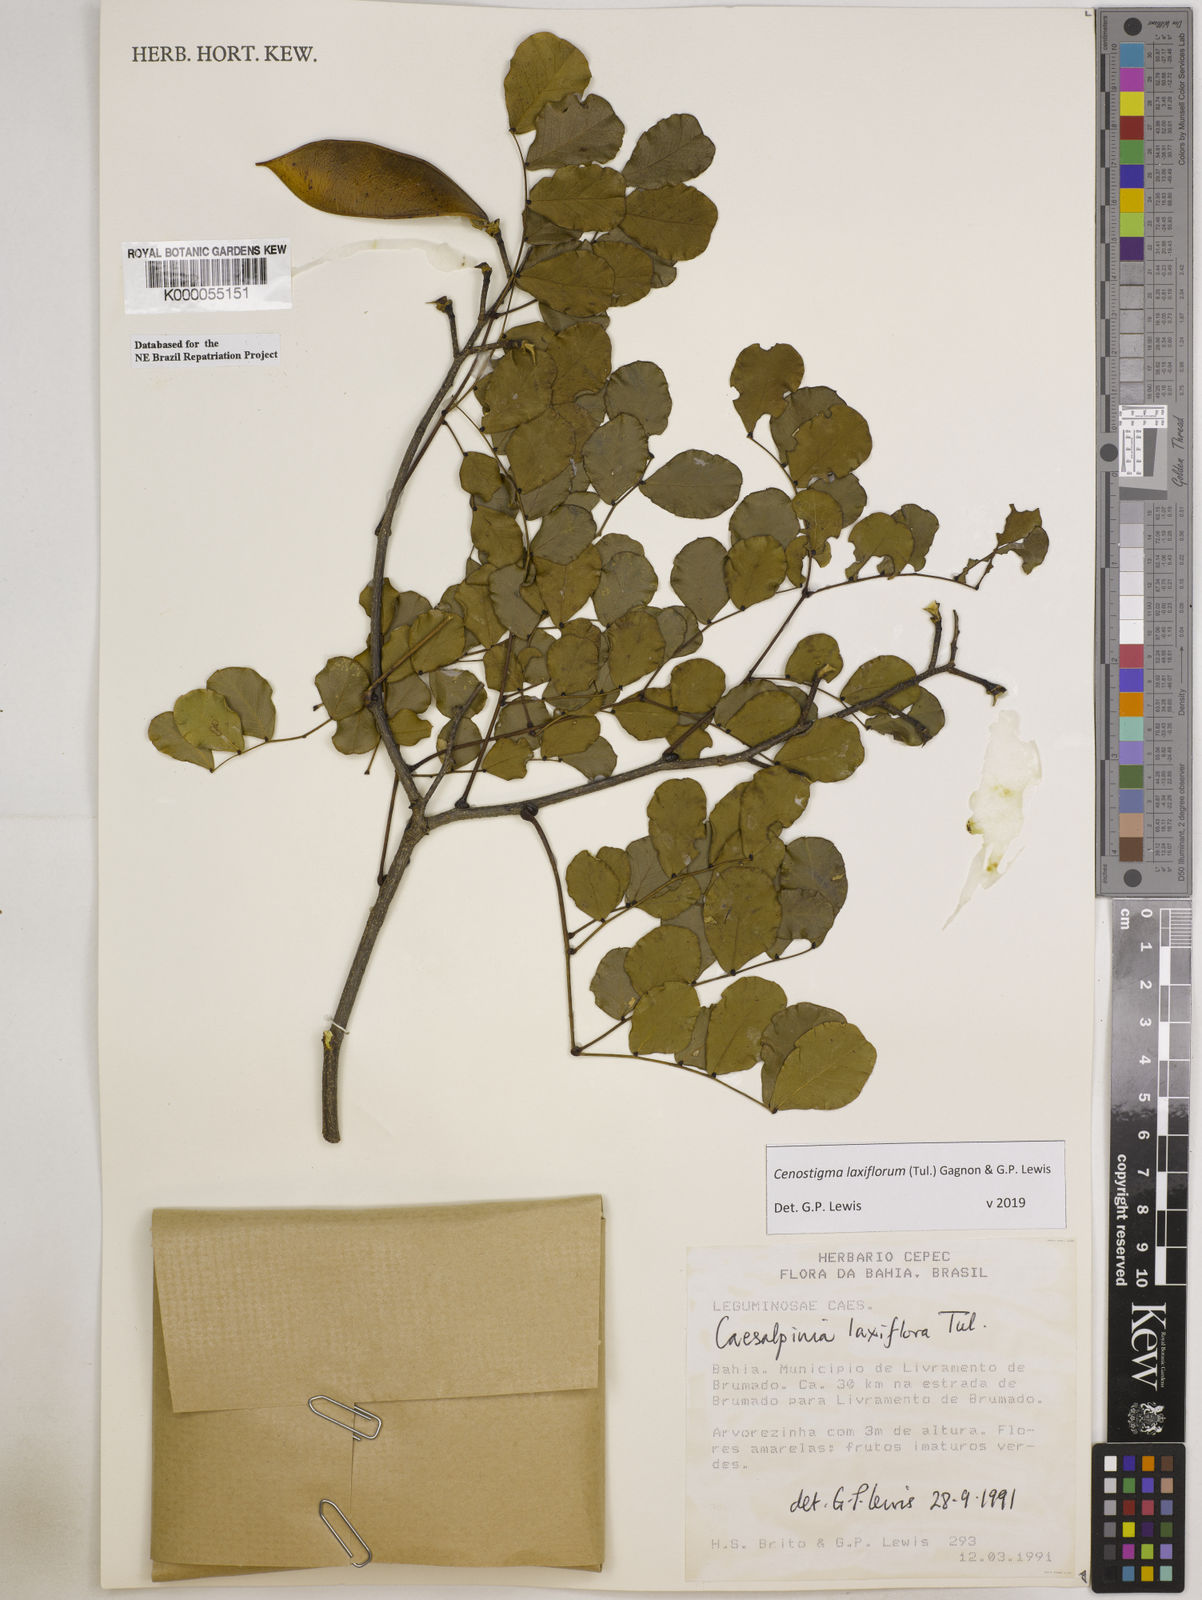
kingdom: Plantae
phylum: Tracheophyta
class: Magnoliopsida
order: Fabales
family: Fabaceae
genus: Cenostigma
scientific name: Cenostigma laxiflorum
